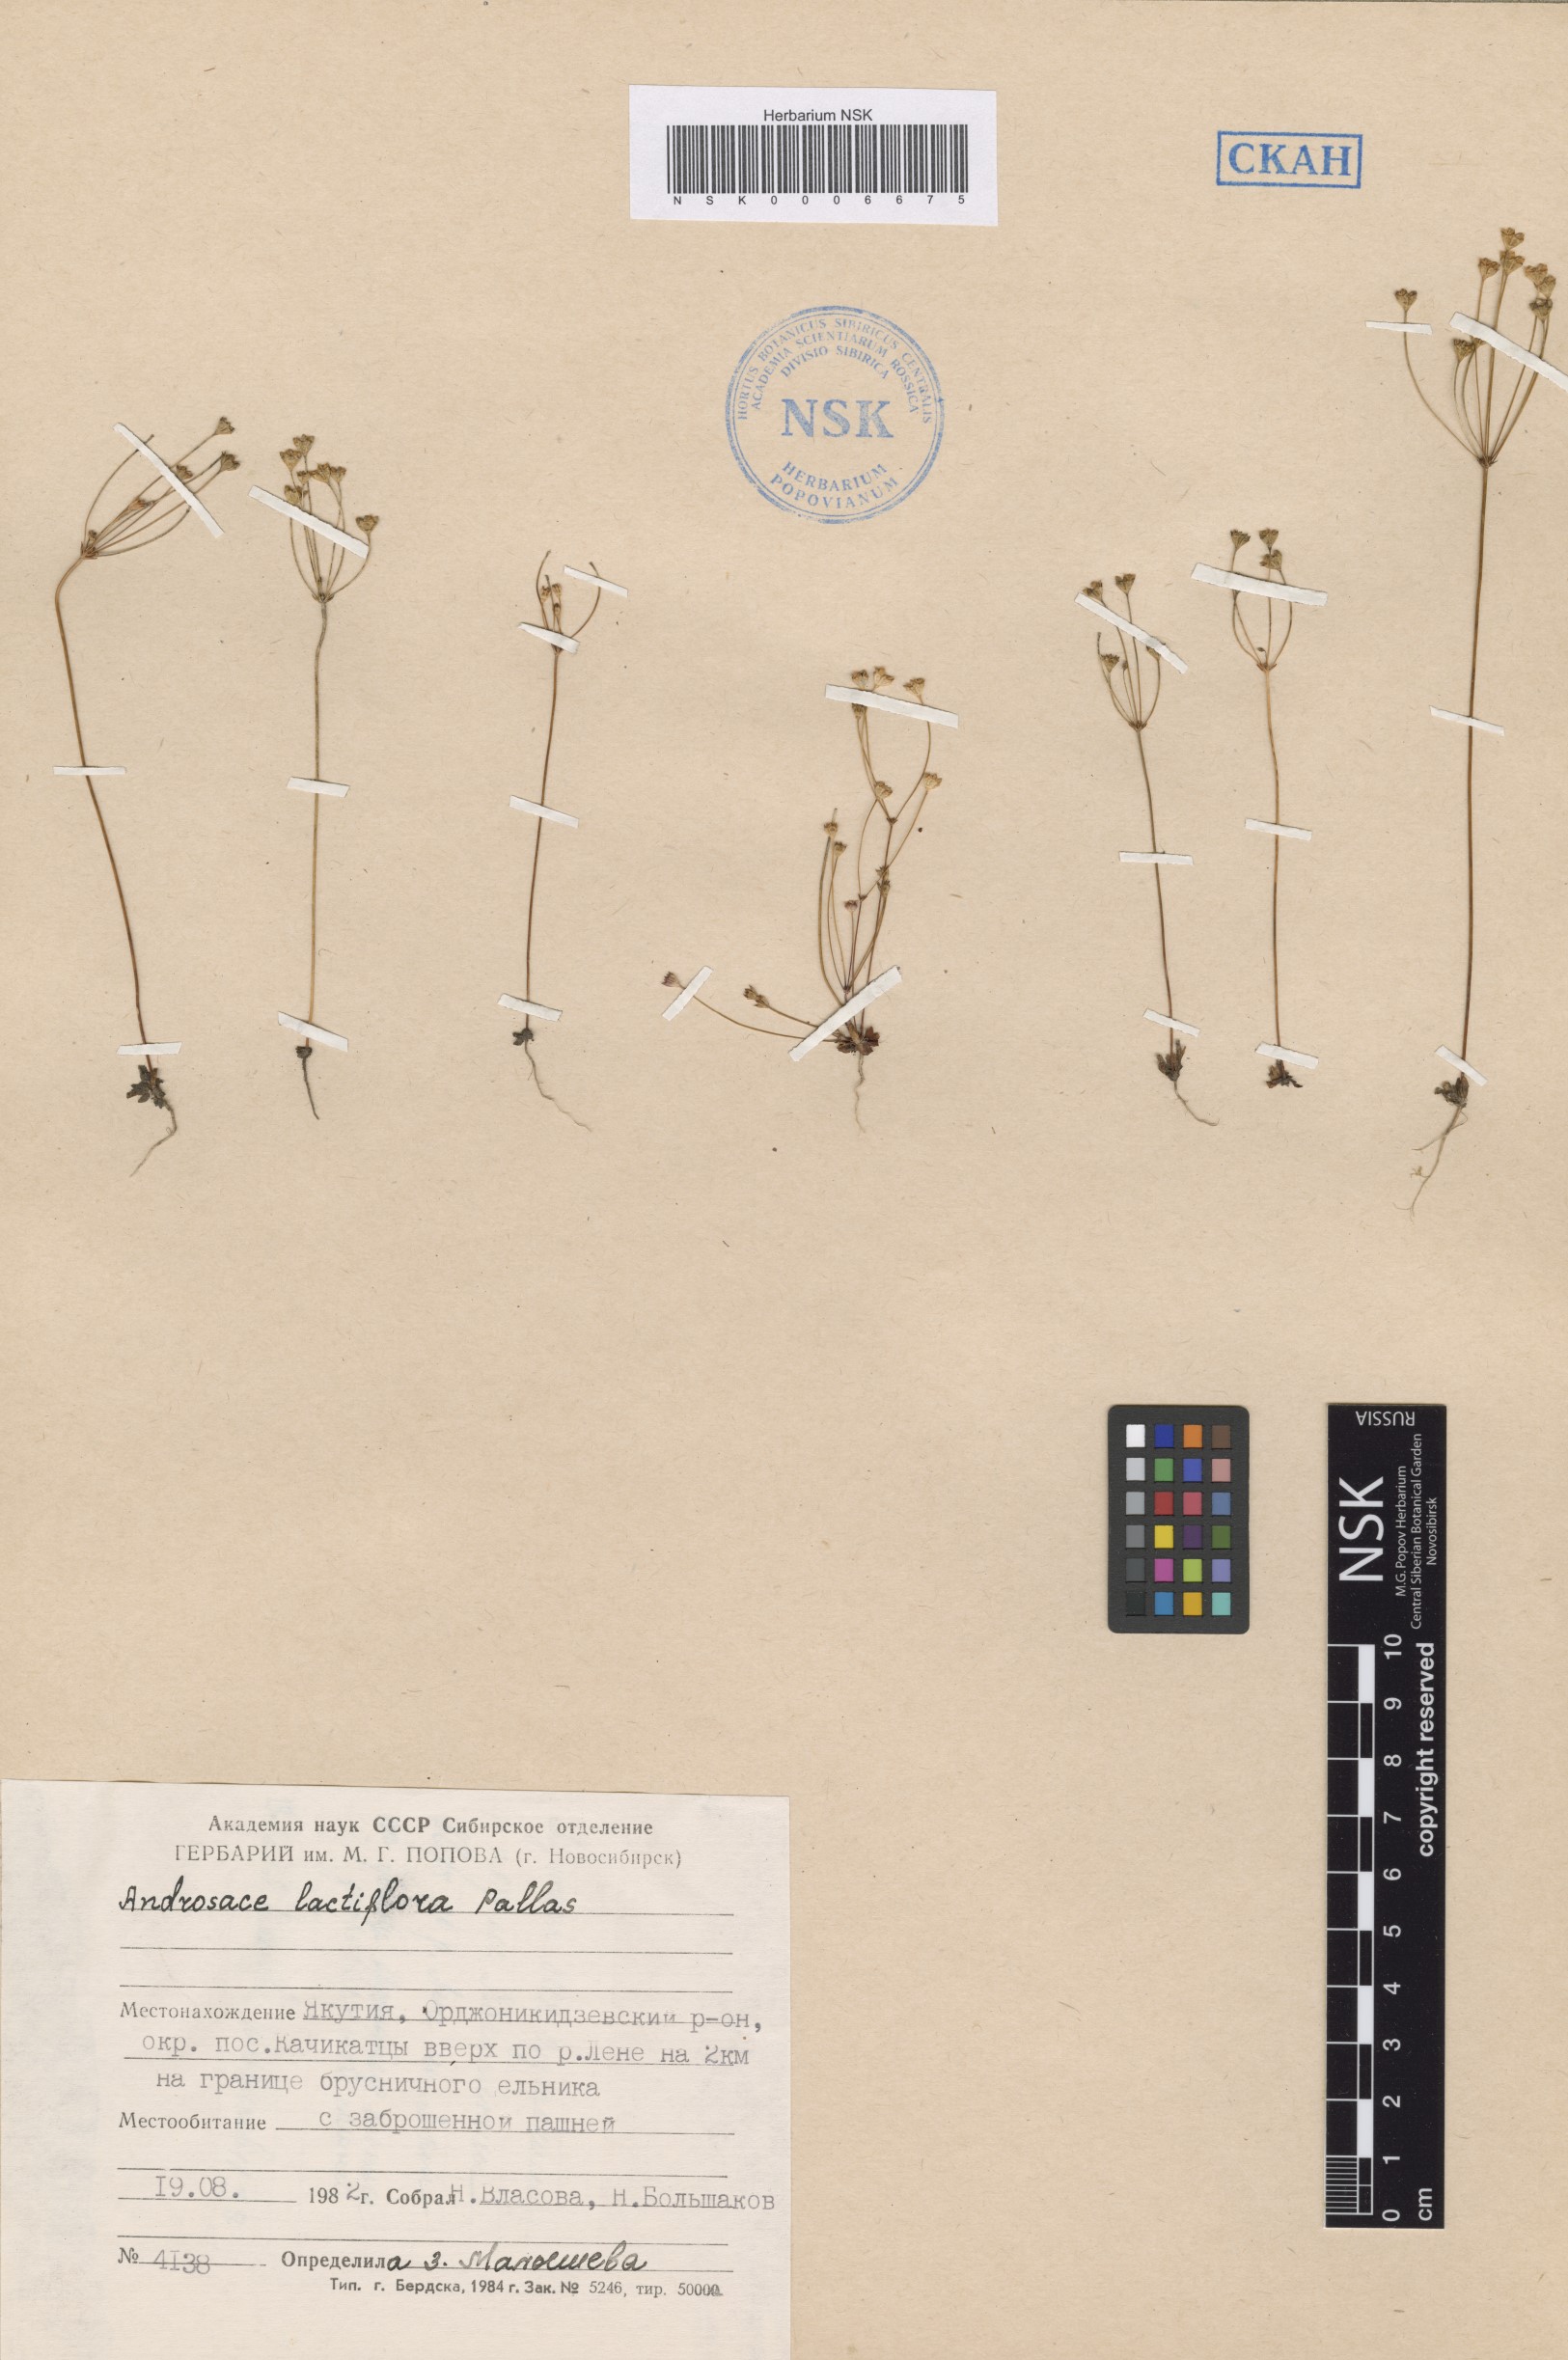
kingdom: Plantae
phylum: Tracheophyta
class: Magnoliopsida
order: Ericales
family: Primulaceae
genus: Androsace
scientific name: Androsace lactiflora
